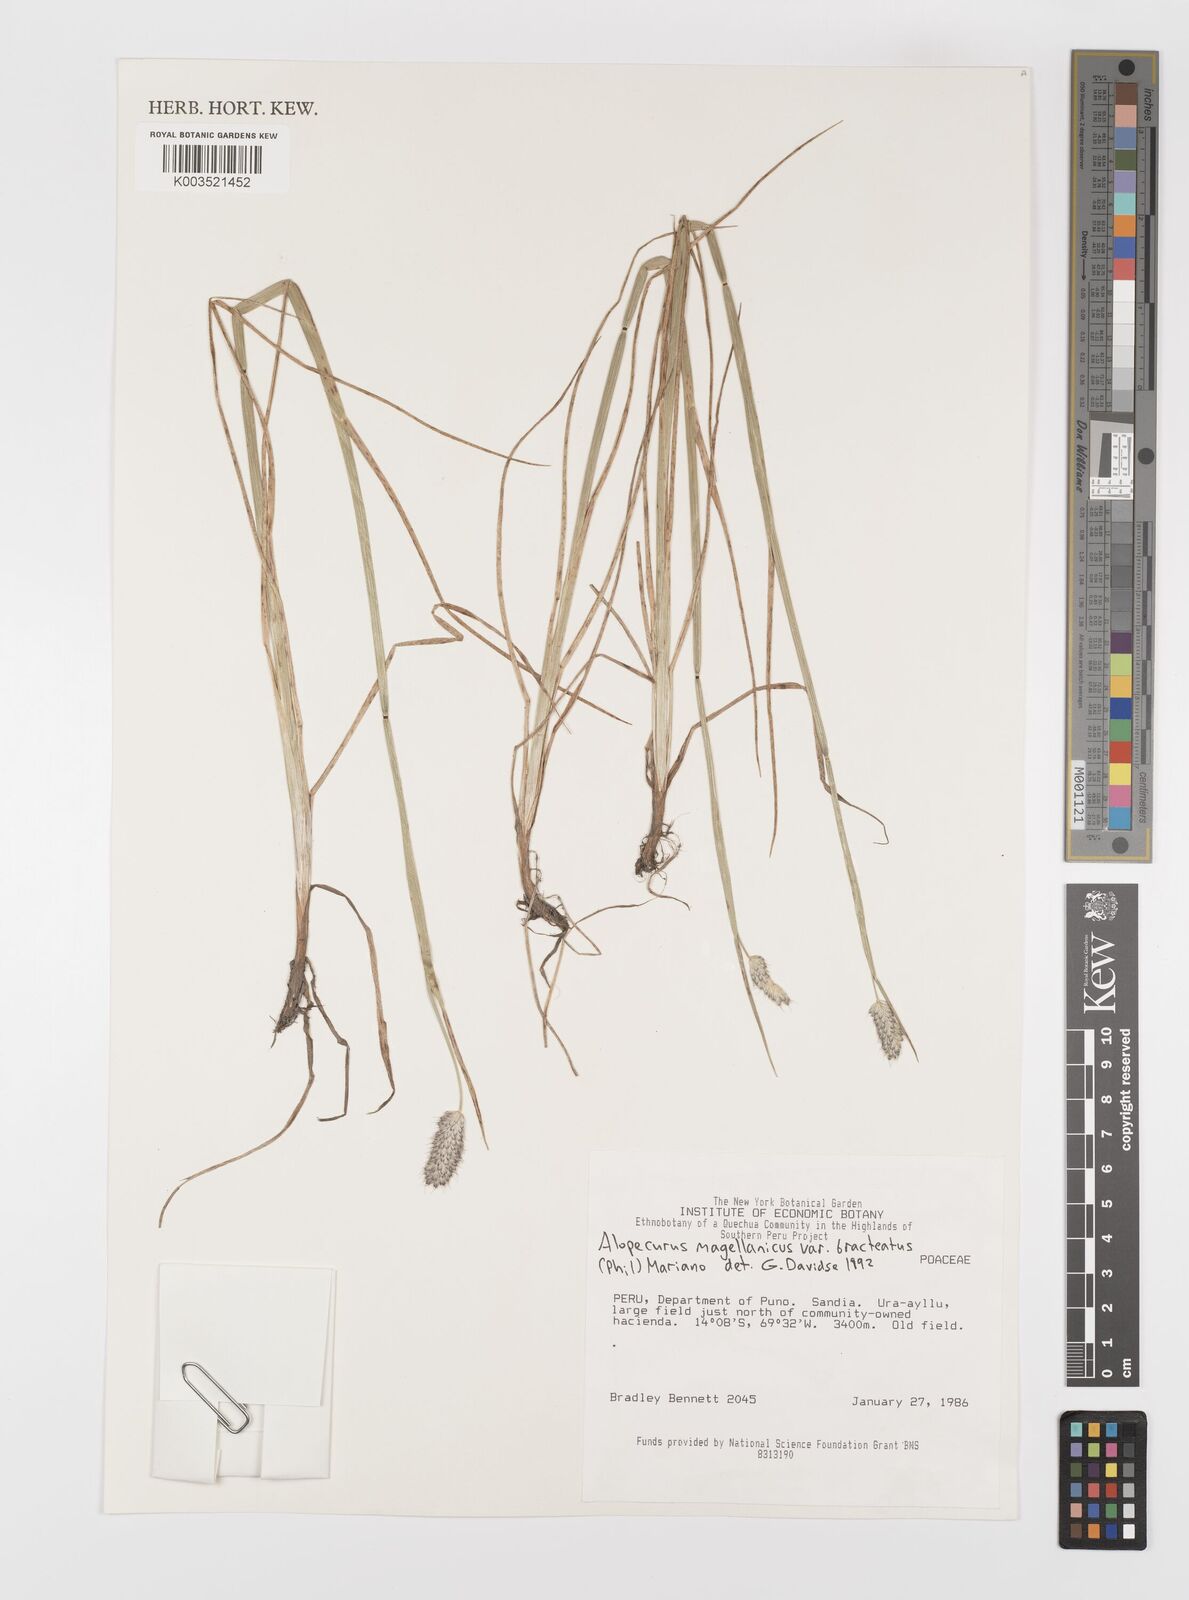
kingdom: Plantae
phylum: Tracheophyta
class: Liliopsida
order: Poales
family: Poaceae
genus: Alopecurus
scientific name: Alopecurus magellanicus
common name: Alpine foxtail
